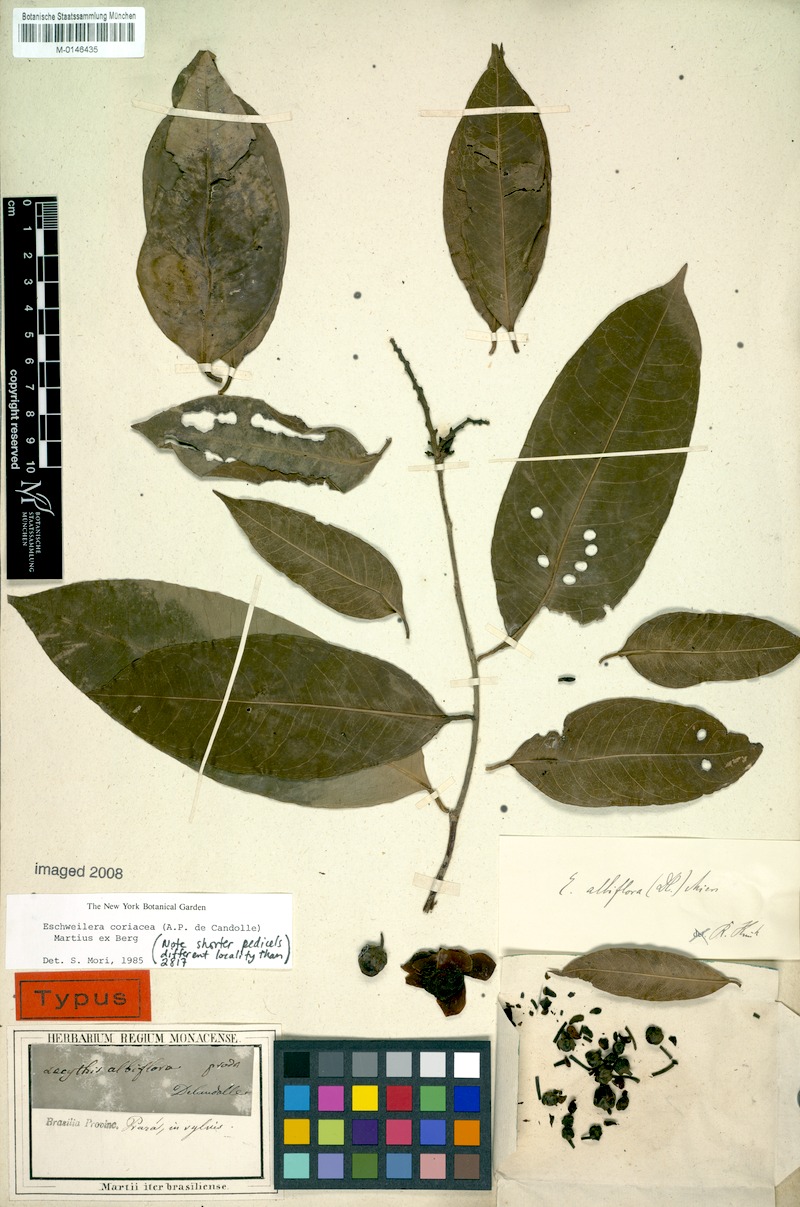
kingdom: Plantae
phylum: Tracheophyta
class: Magnoliopsida
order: Ericales
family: Lecythidaceae
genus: Eschweilera
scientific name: Eschweilera coriacea
